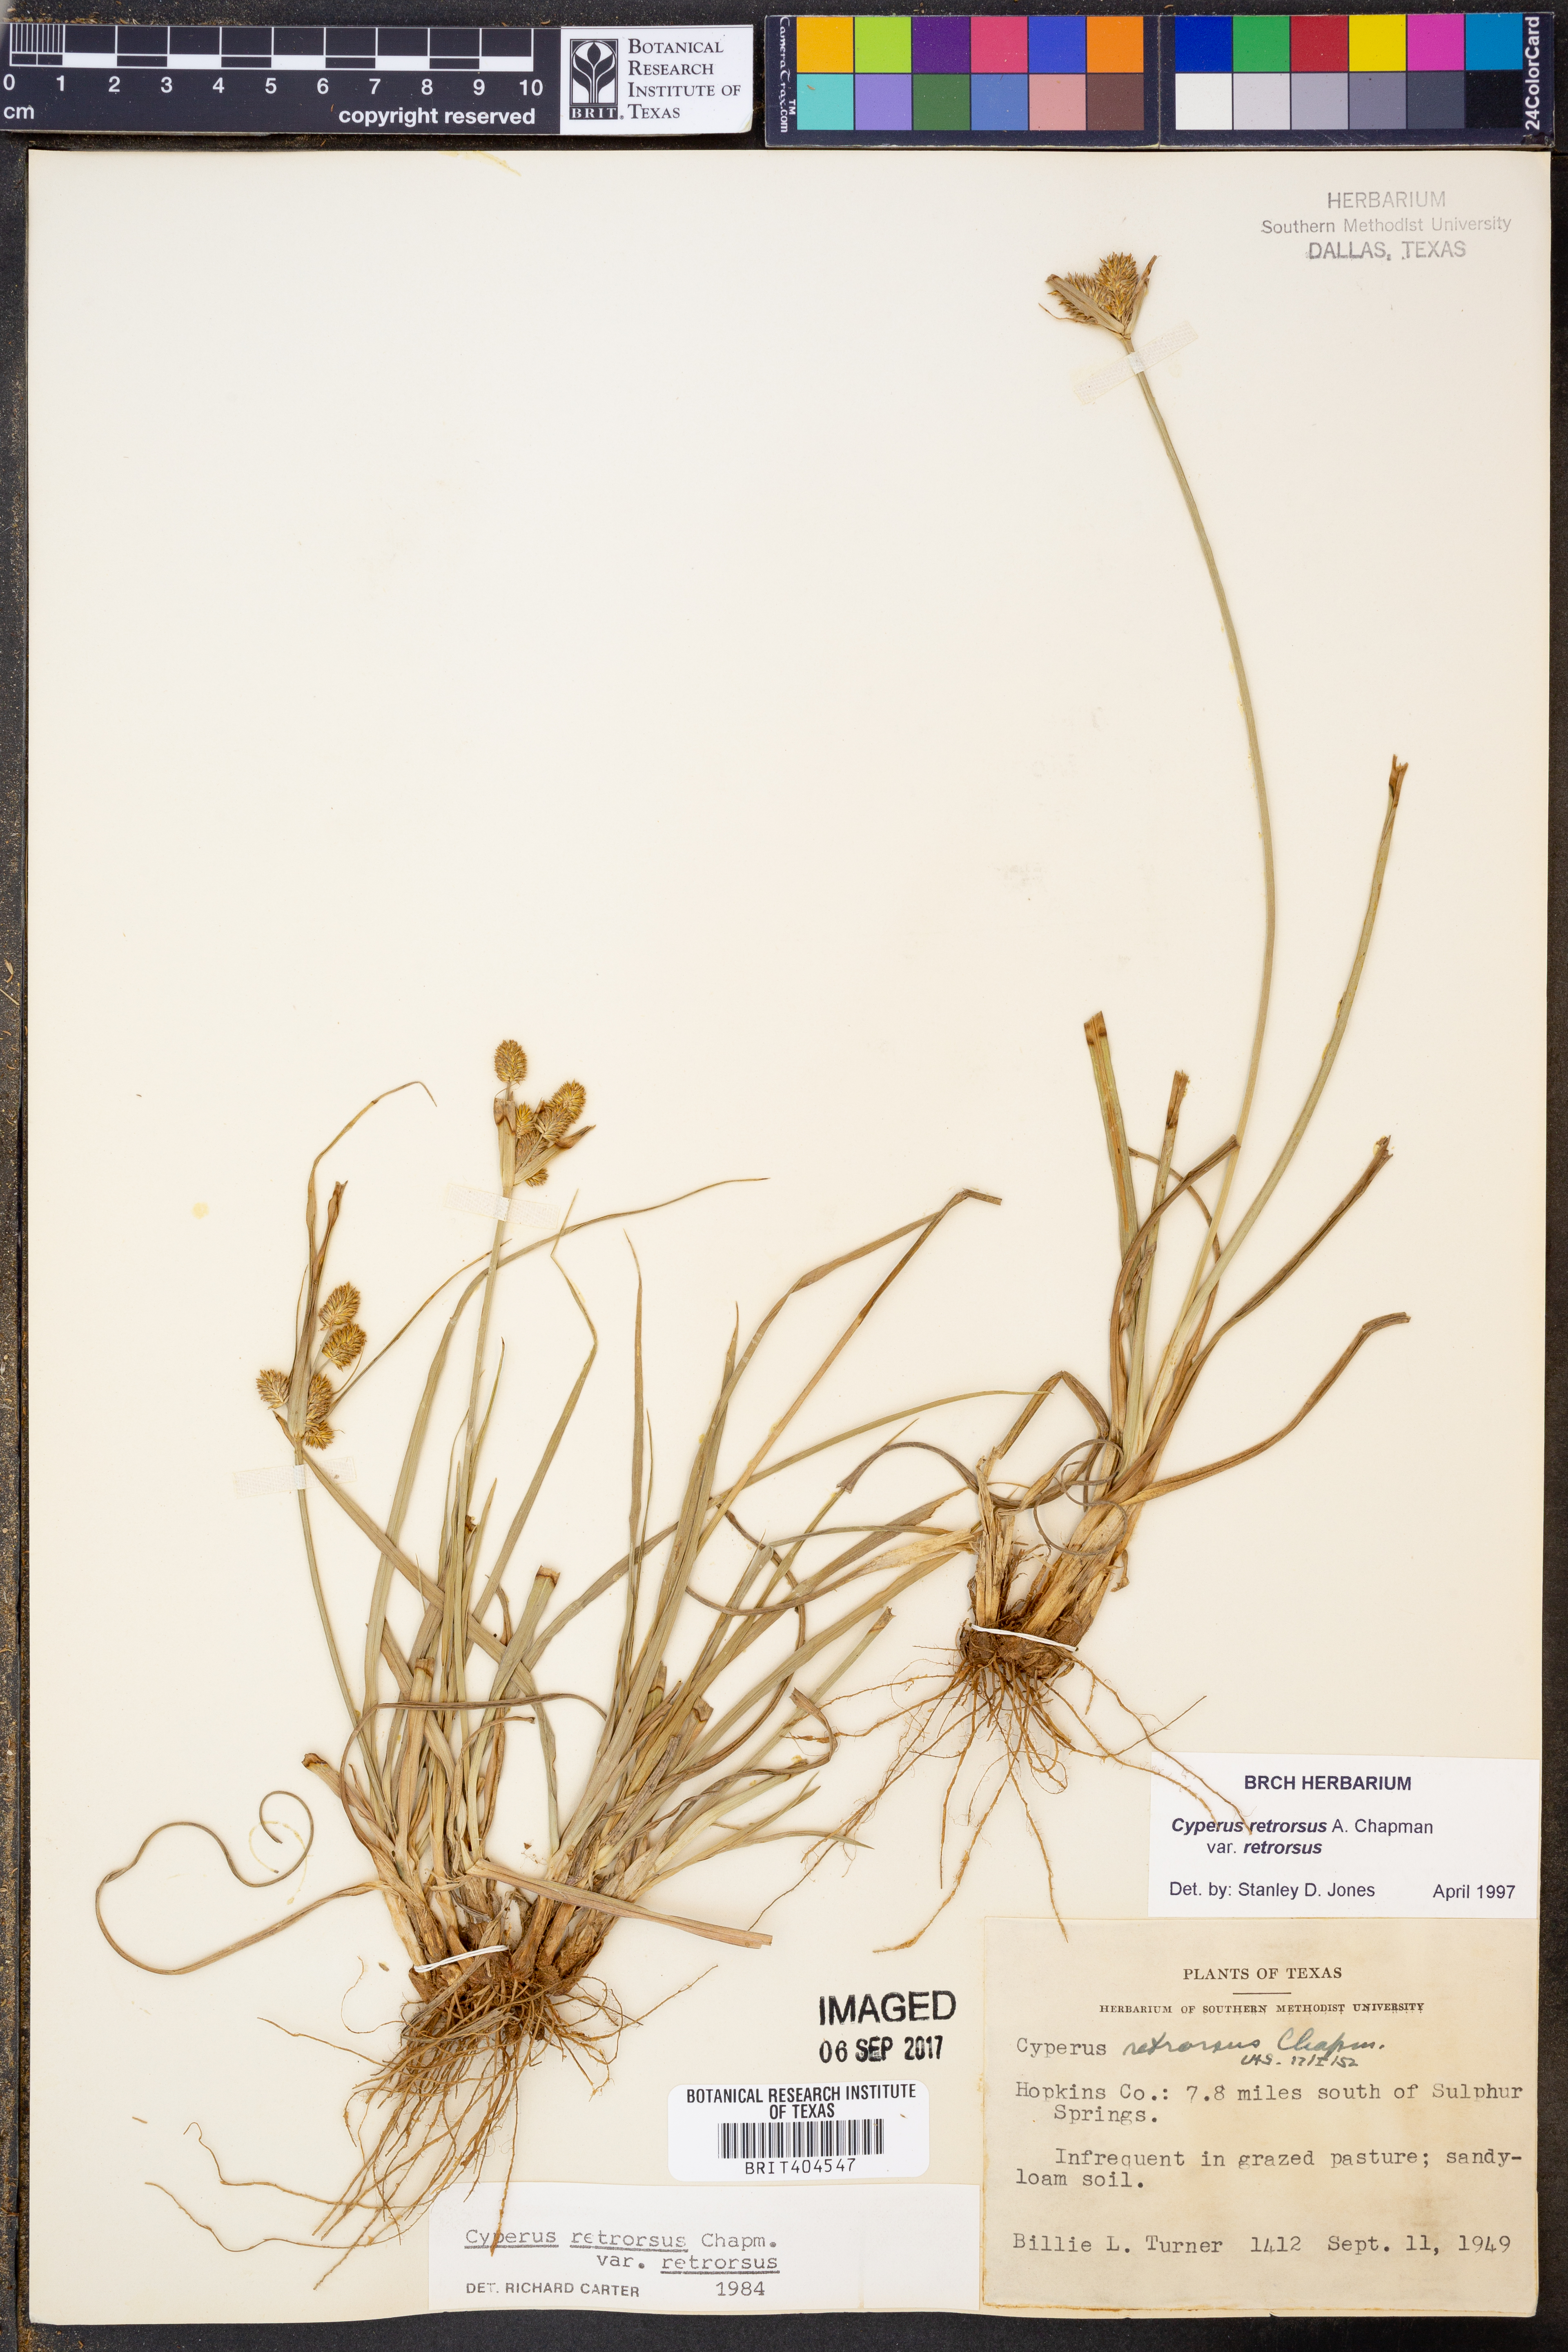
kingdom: Plantae
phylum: Tracheophyta
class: Liliopsida
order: Poales
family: Cyperaceae
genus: Cyperus
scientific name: Cyperus retrorsus
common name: Pinebarren flat sedge
